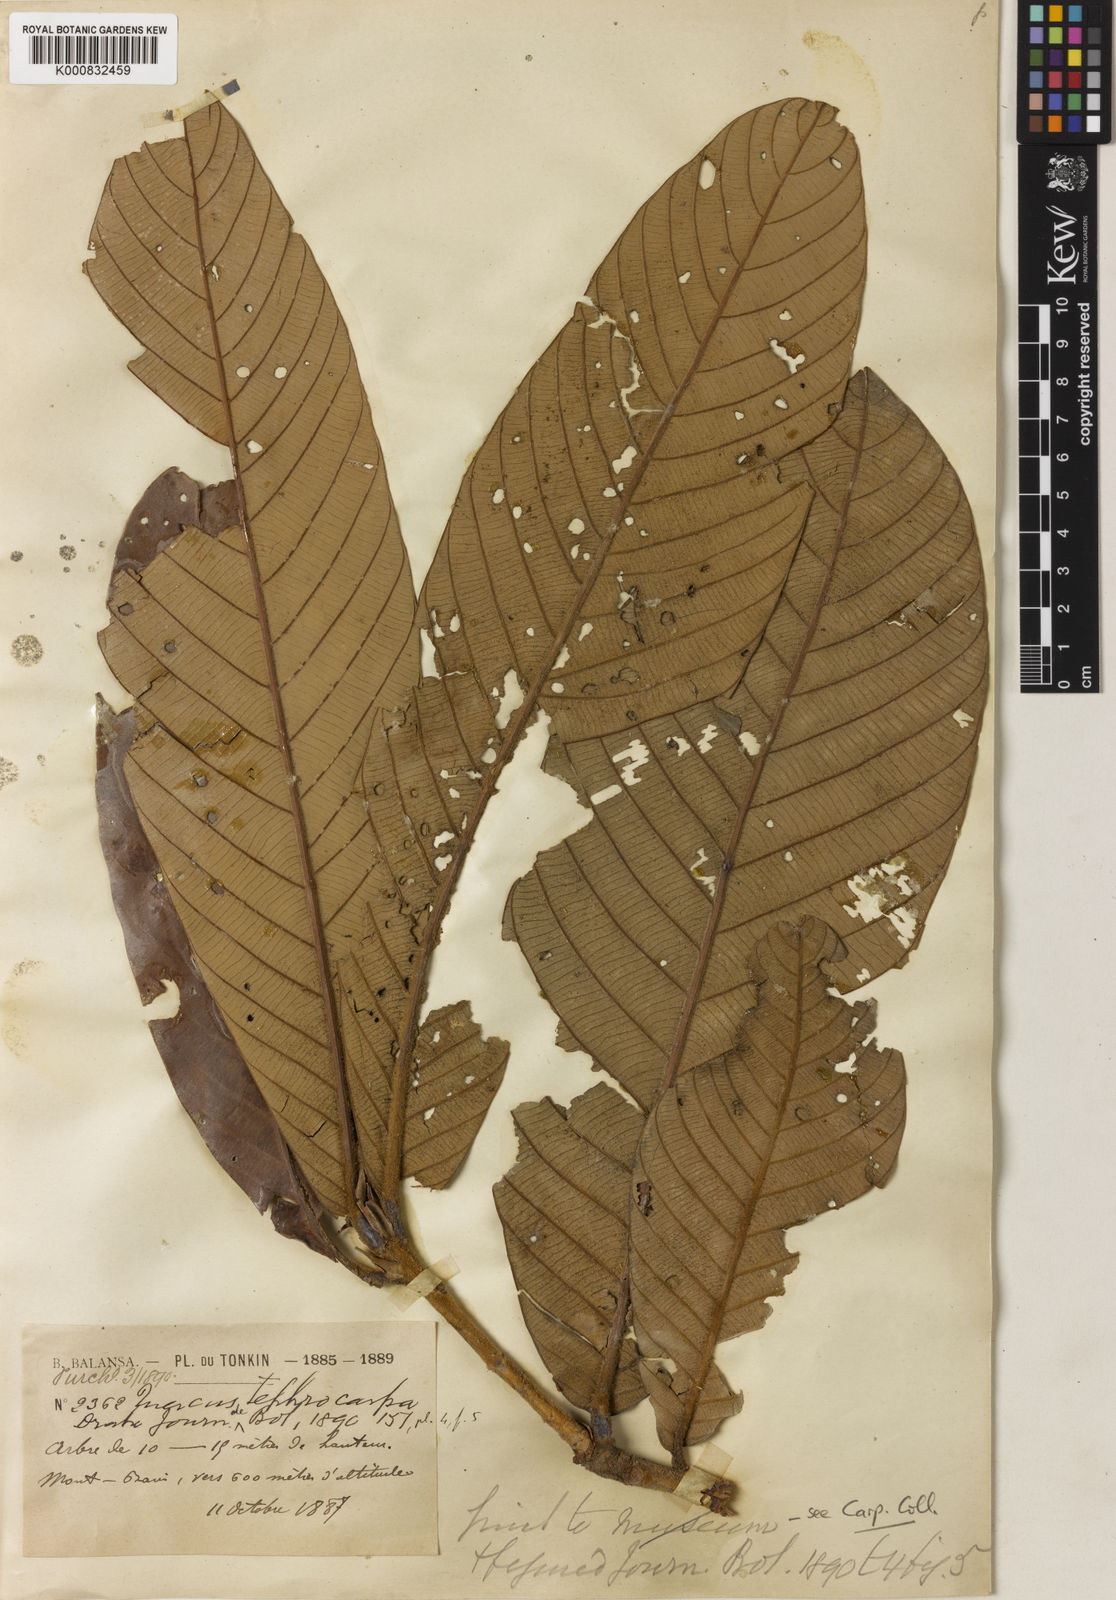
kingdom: Plantae
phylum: Tracheophyta
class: Magnoliopsida
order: Fagales
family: Fagaceae
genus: Lithocarpus
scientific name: Lithocarpus tephrocarpus
